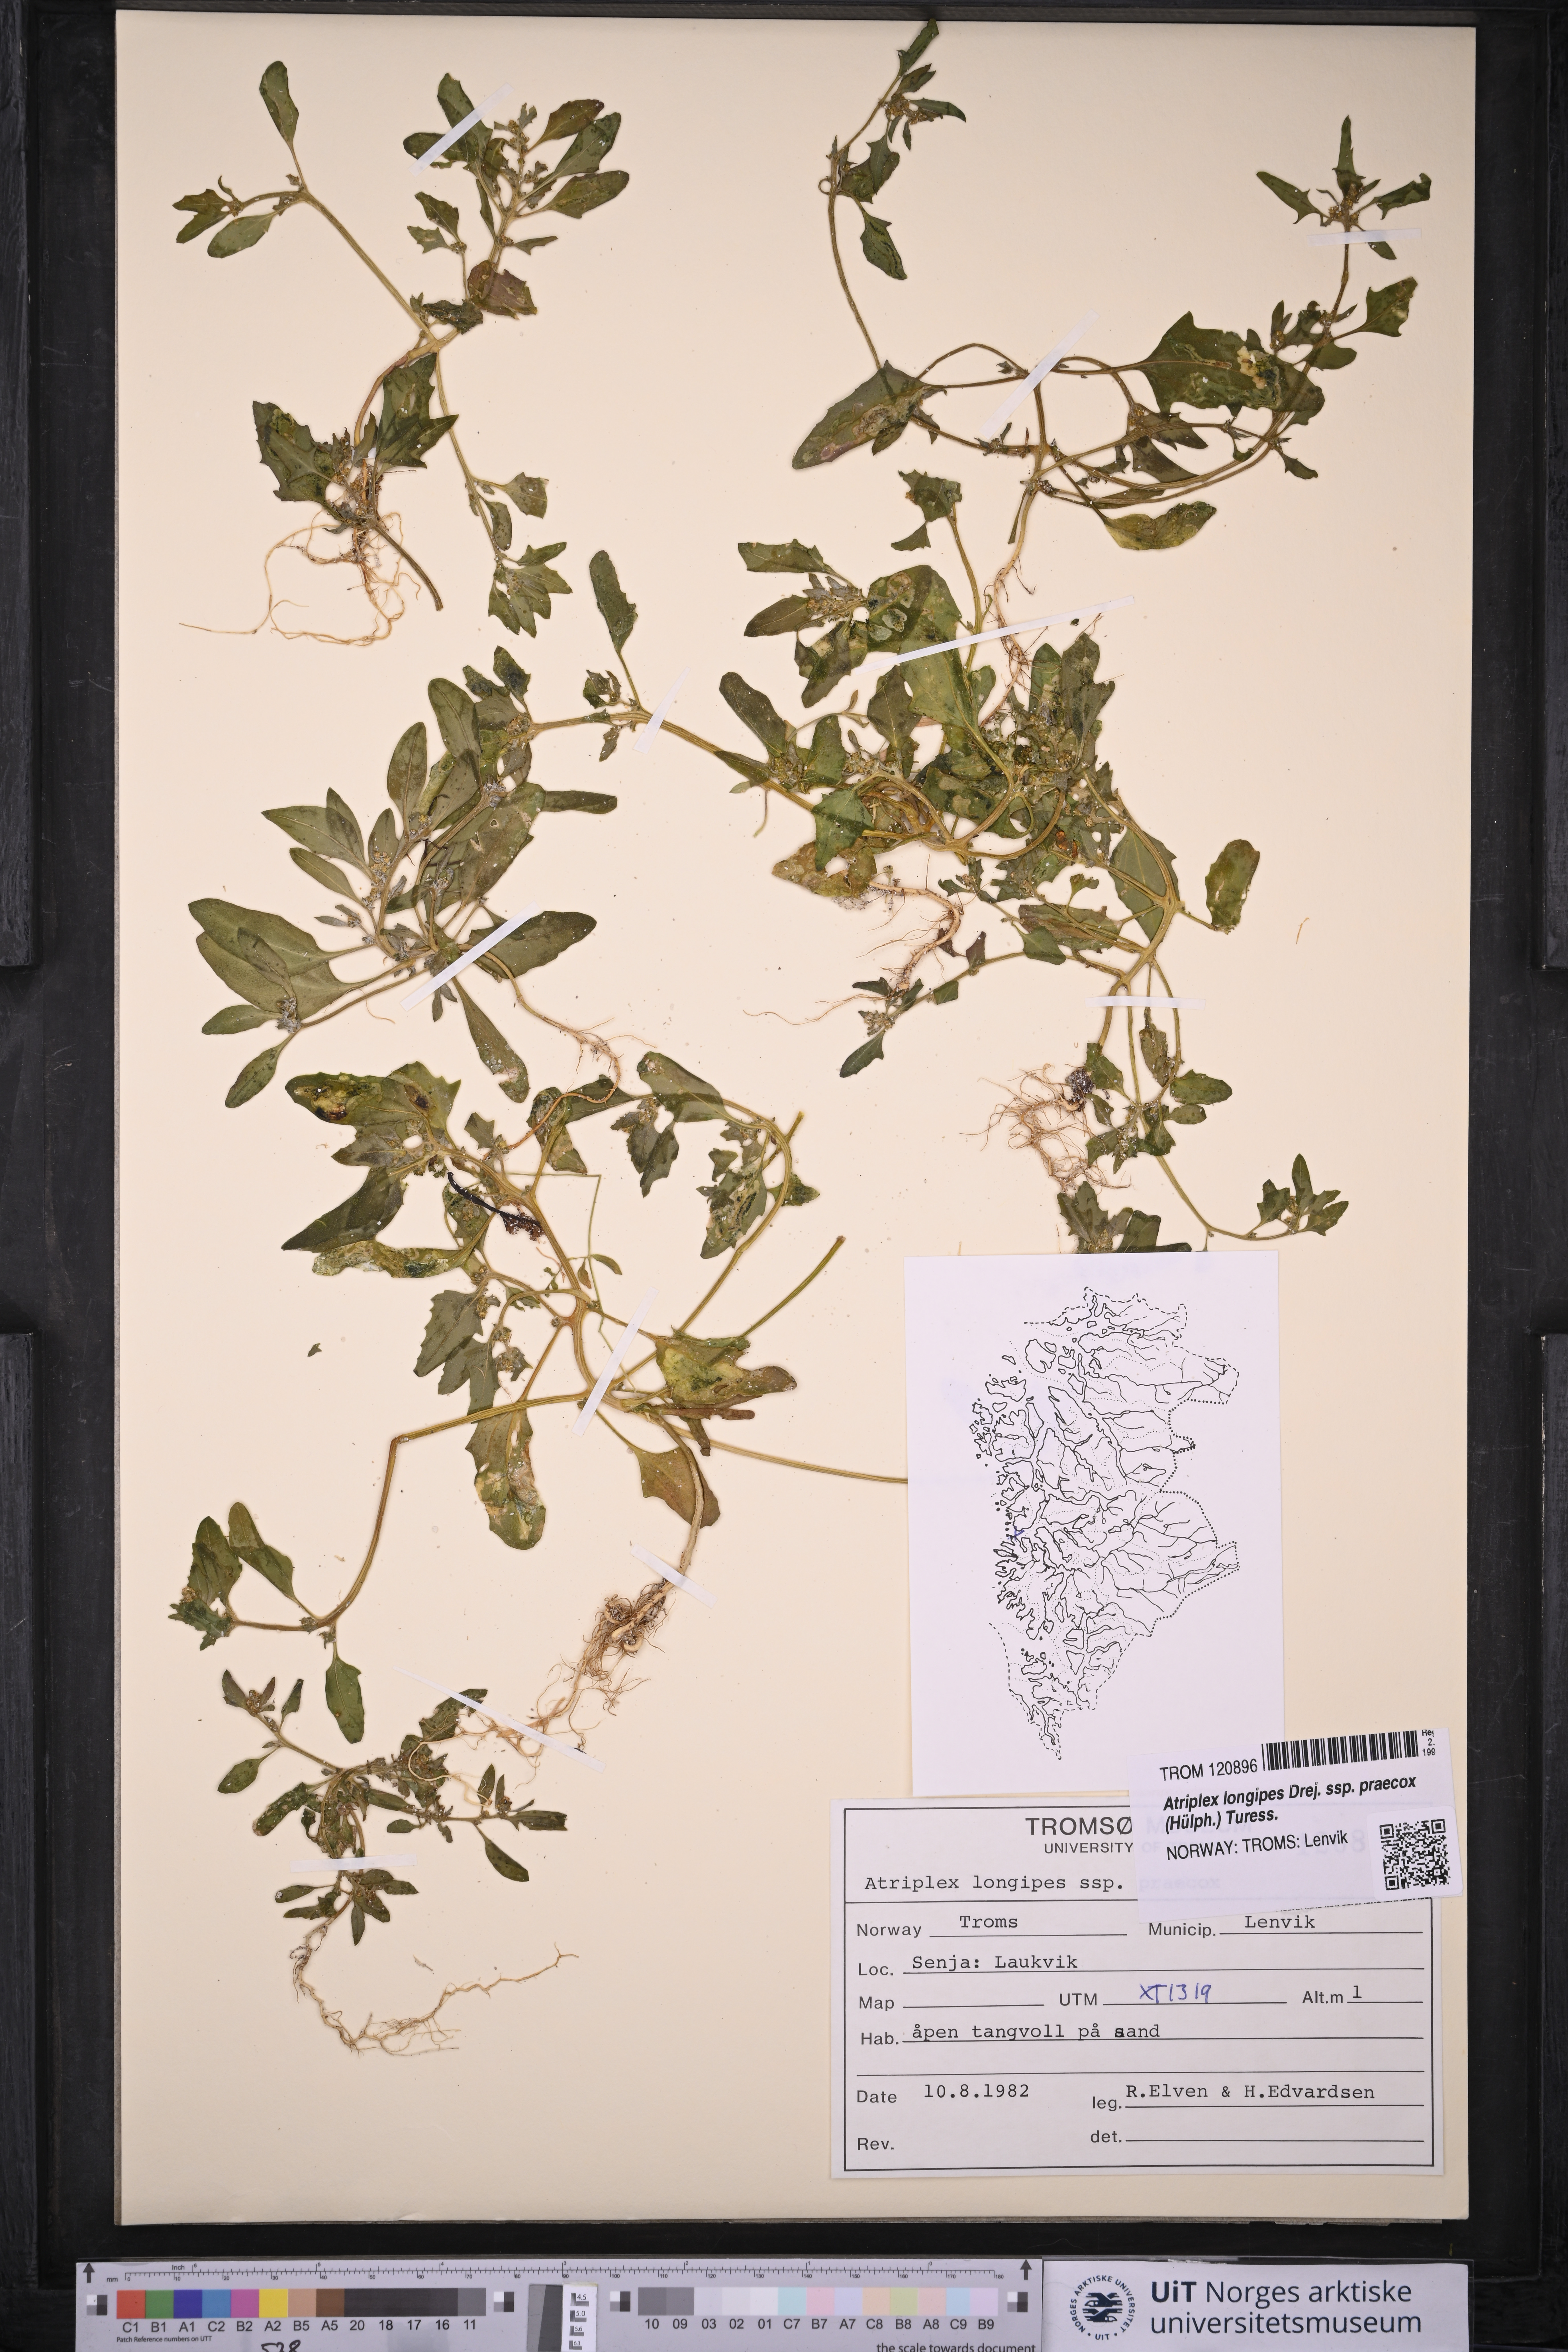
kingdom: Plantae
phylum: Tracheophyta
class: Magnoliopsida
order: Caryophyllales
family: Amaranthaceae
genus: Atriplex
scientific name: Atriplex praecox
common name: Early orache
